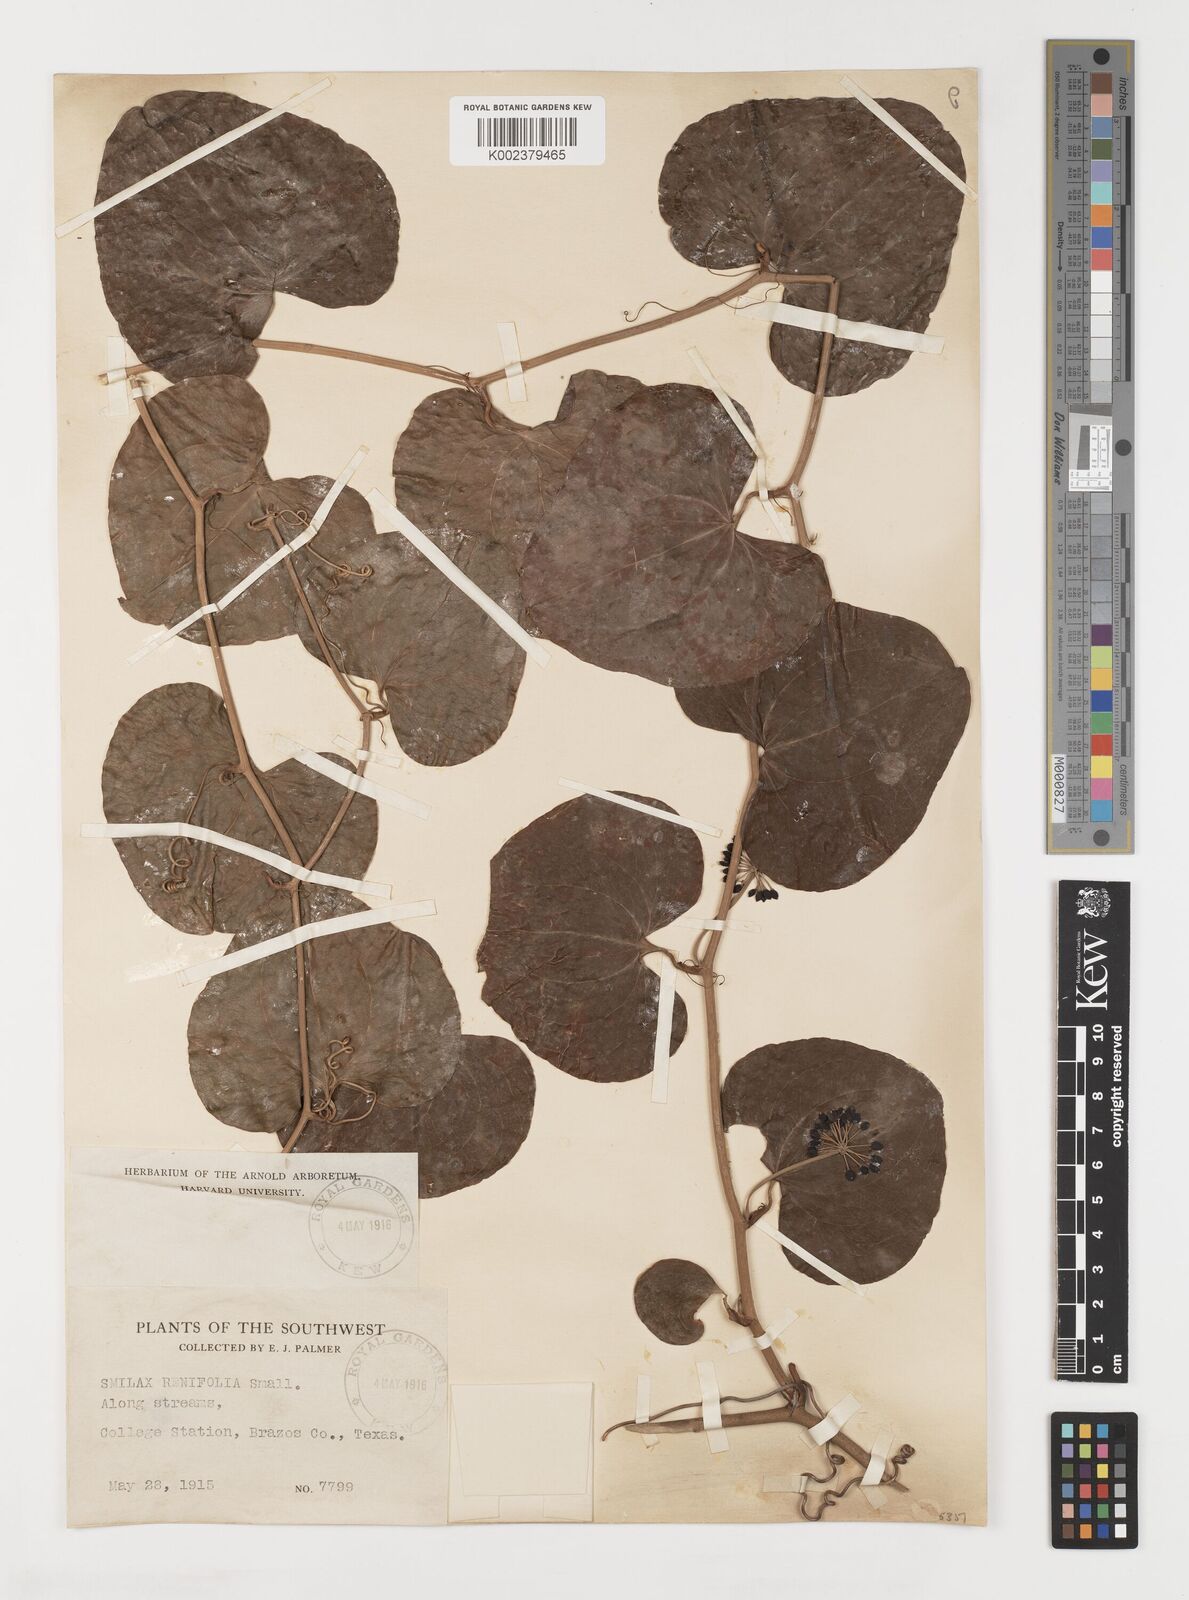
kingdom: Plantae
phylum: Tracheophyta
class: Liliopsida
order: Liliales
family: Smilacaceae
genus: Smilax
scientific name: Smilax bona-nox
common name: Catbrier
